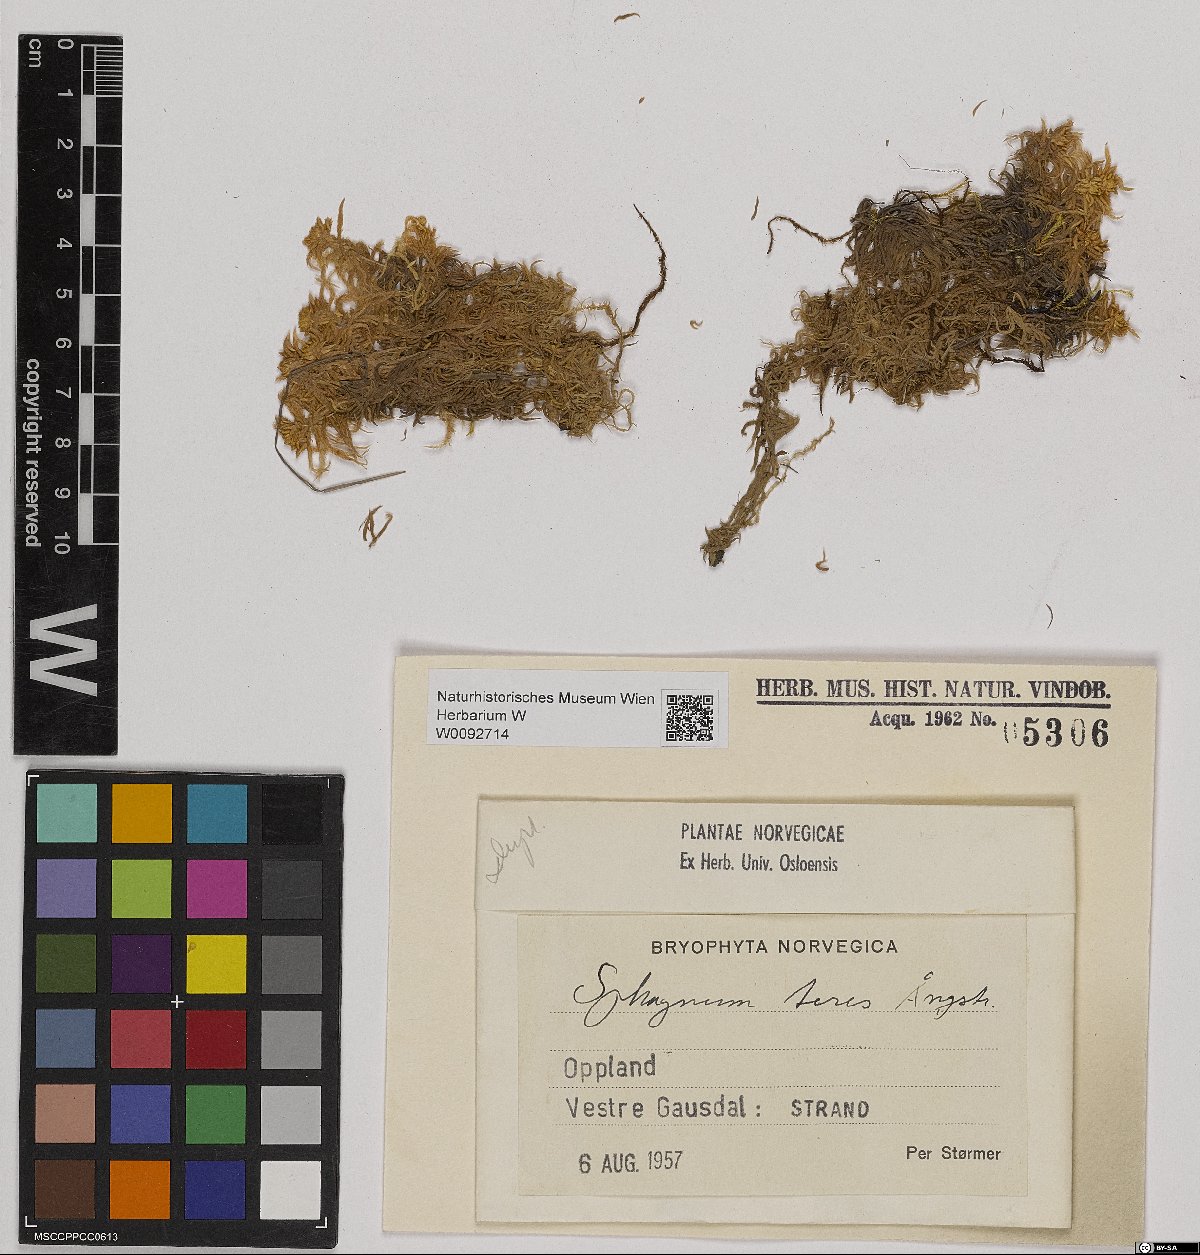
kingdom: Plantae
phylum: Bryophyta
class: Sphagnopsida
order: Sphagnales
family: Sphagnaceae
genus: Sphagnum
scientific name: Sphagnum teres
